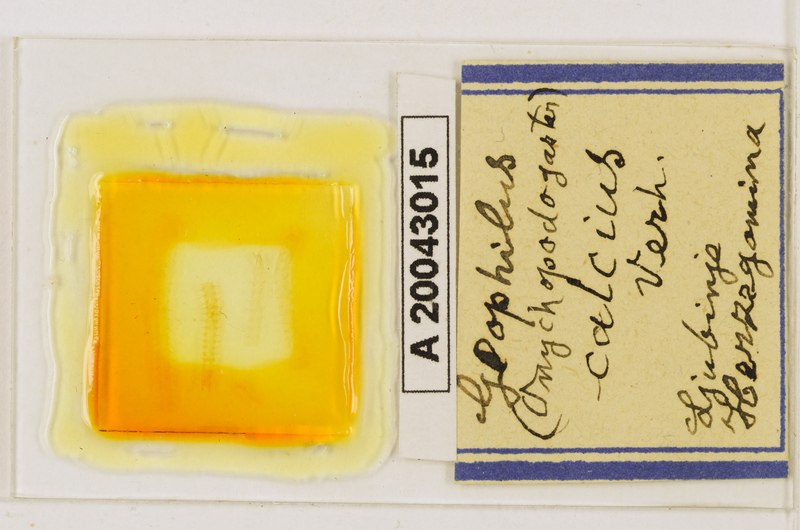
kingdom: Animalia
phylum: Arthropoda
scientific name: Arthropoda
